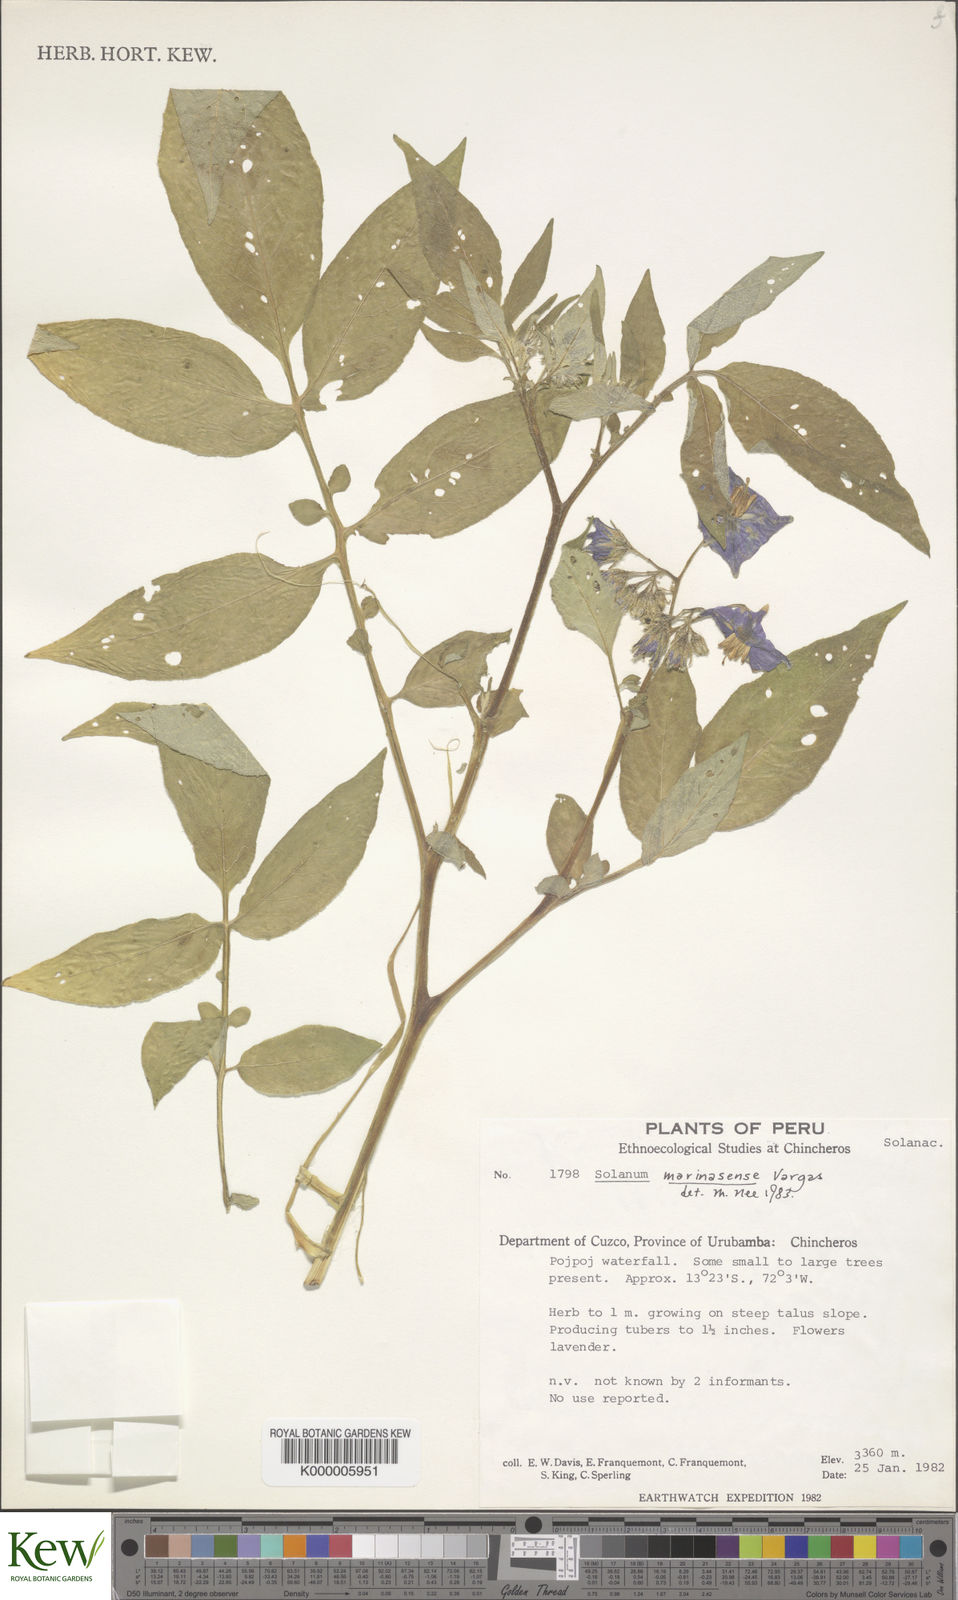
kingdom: Plantae
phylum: Tracheophyta
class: Magnoliopsida
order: Solanales
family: Solanaceae
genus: Solanum
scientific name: Solanum candolleanum
